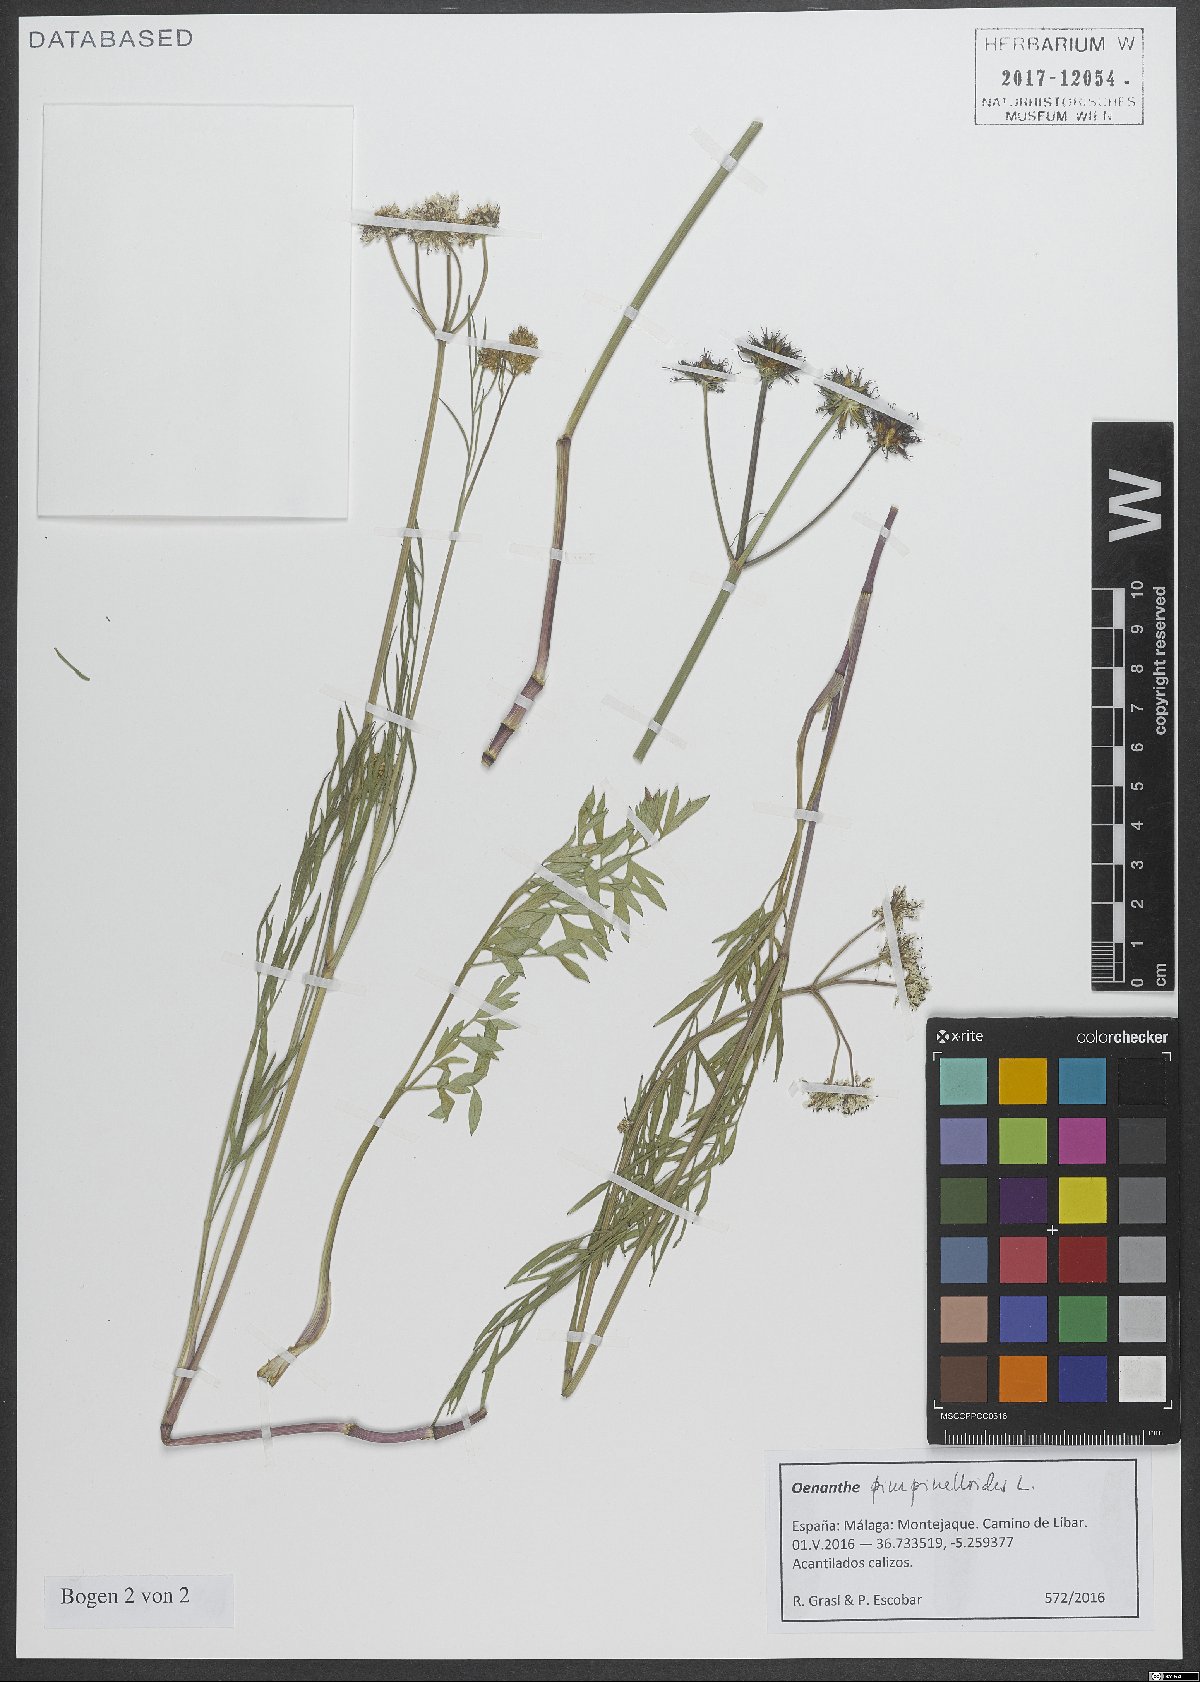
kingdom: Plantae
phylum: Tracheophyta
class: Magnoliopsida
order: Apiales
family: Apiaceae
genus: Oenanthe
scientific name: Oenanthe pimpinelloides
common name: Corky-fruited water-dropwort
